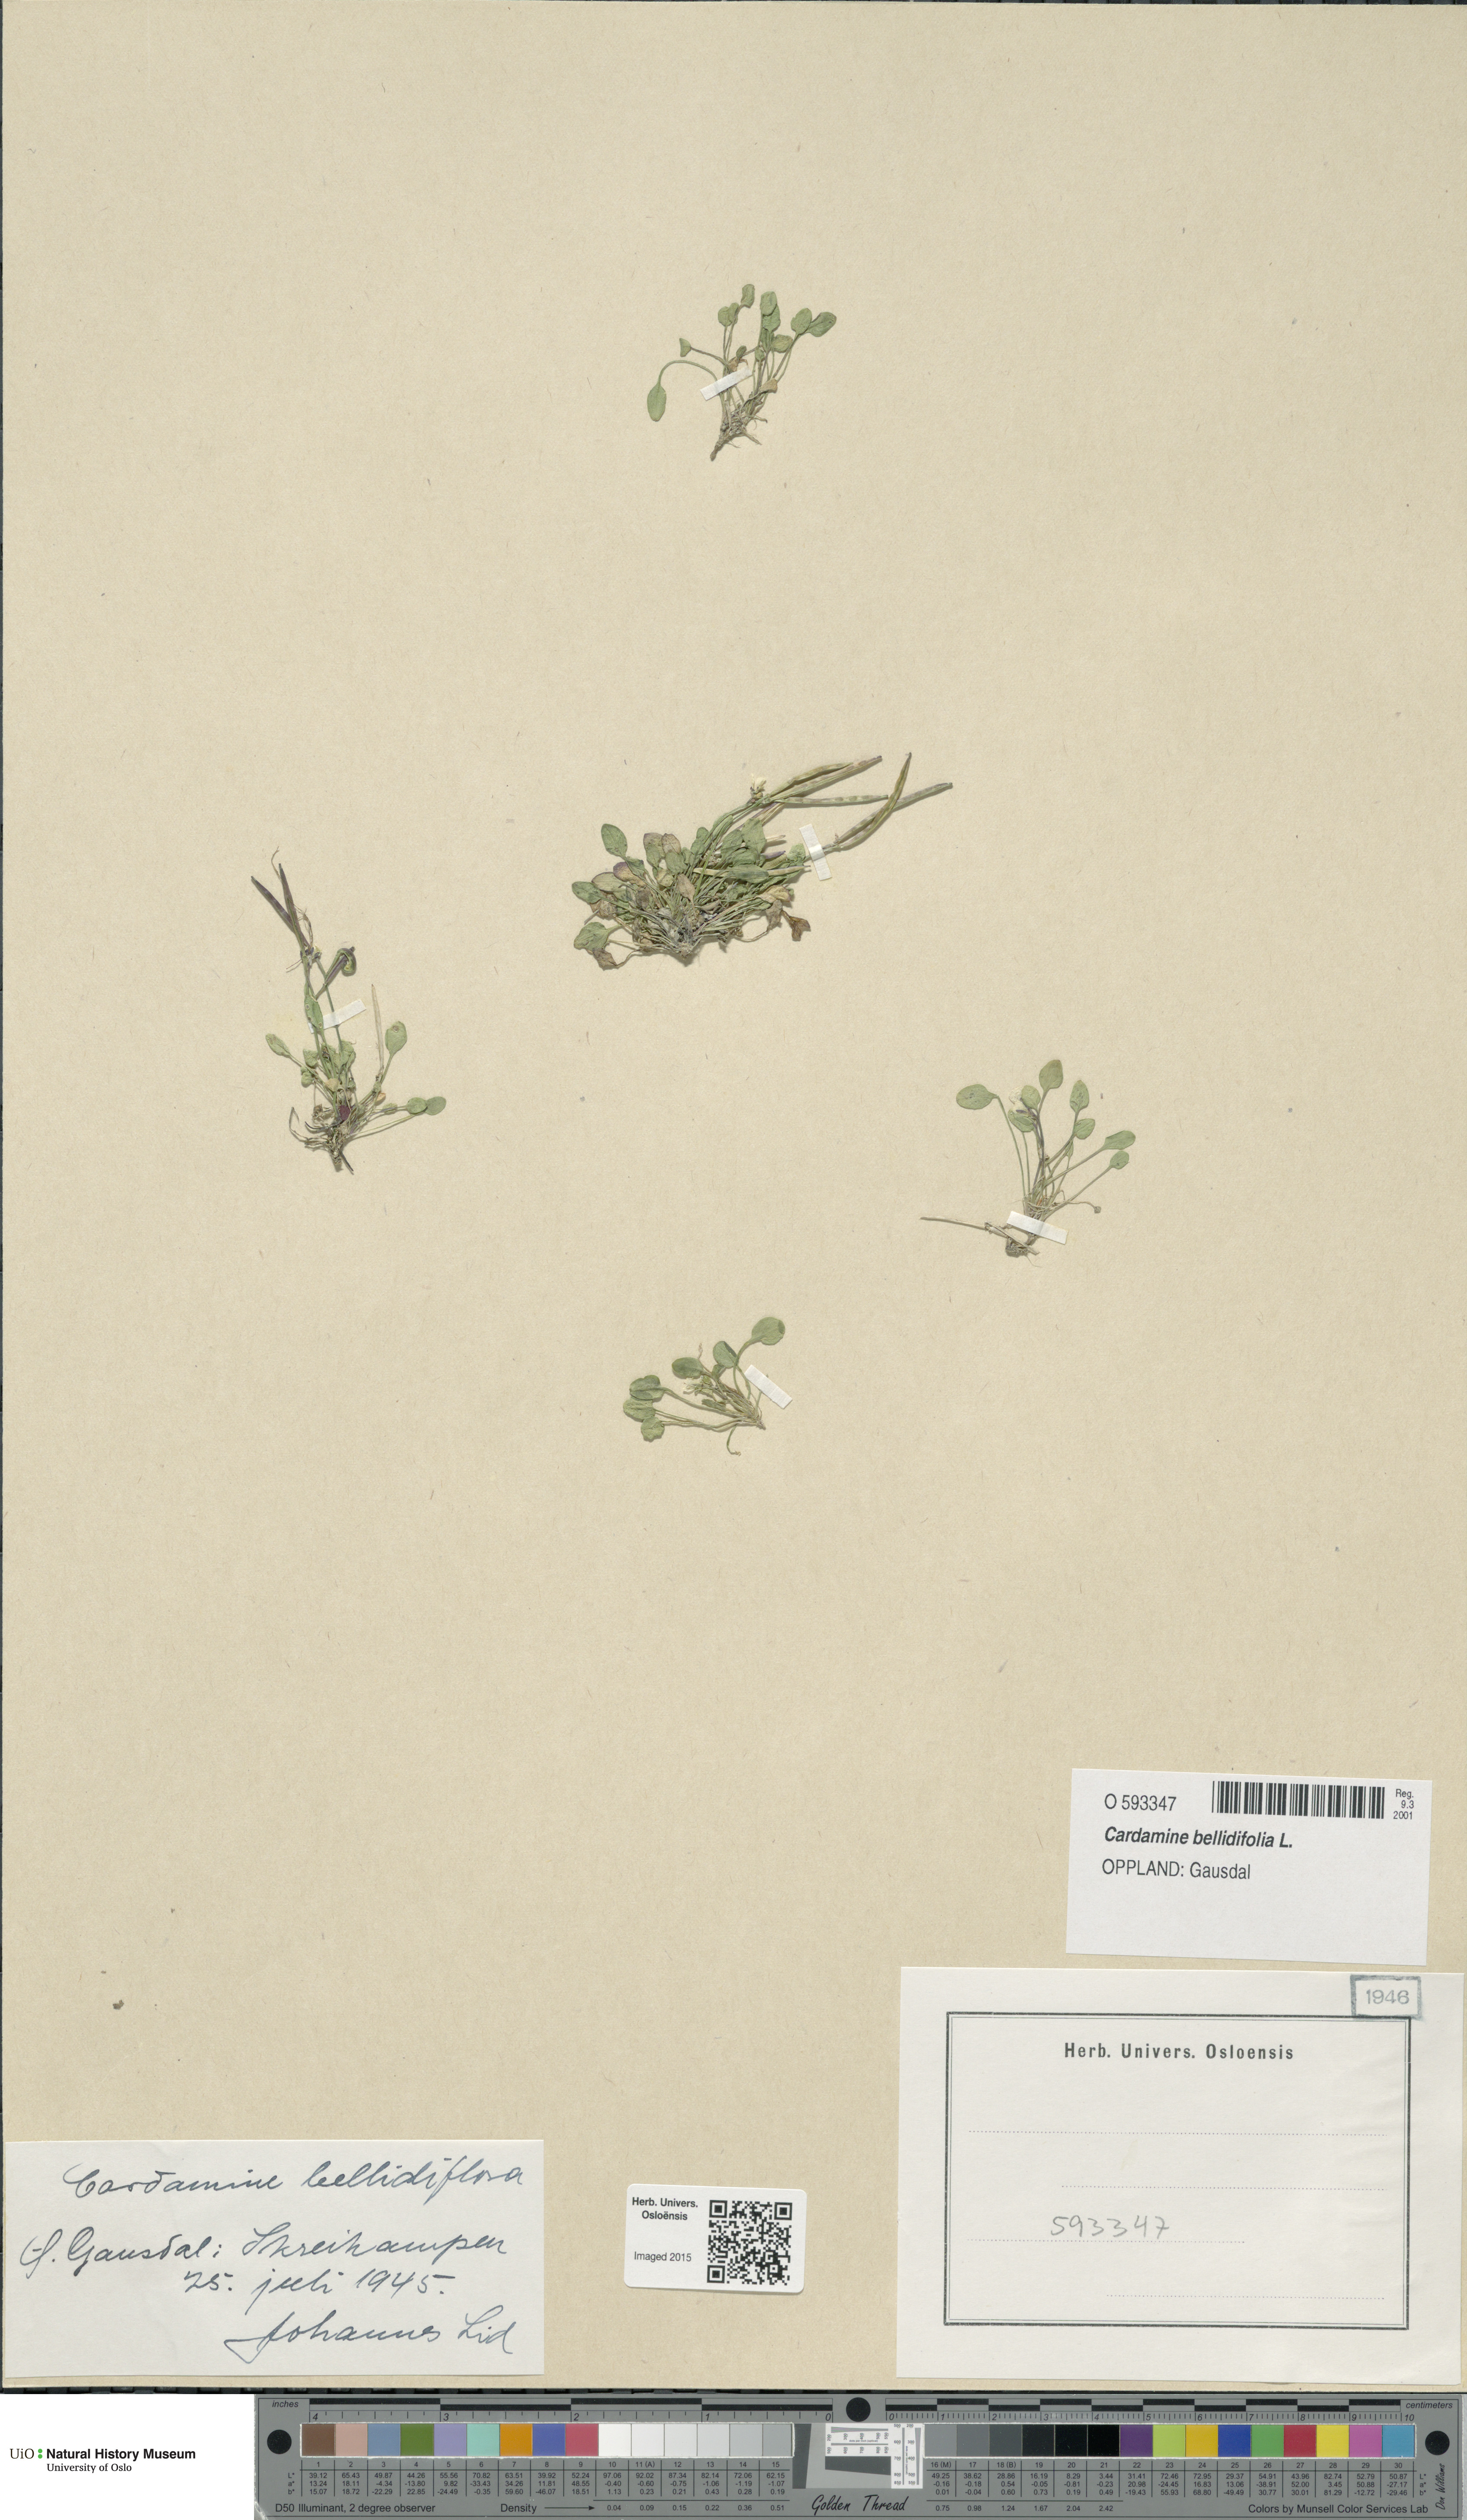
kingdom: Plantae
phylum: Tracheophyta
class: Magnoliopsida
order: Brassicales
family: Brassicaceae
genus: Cardamine
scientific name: Cardamine bellidifolia
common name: Alpine bittercress
